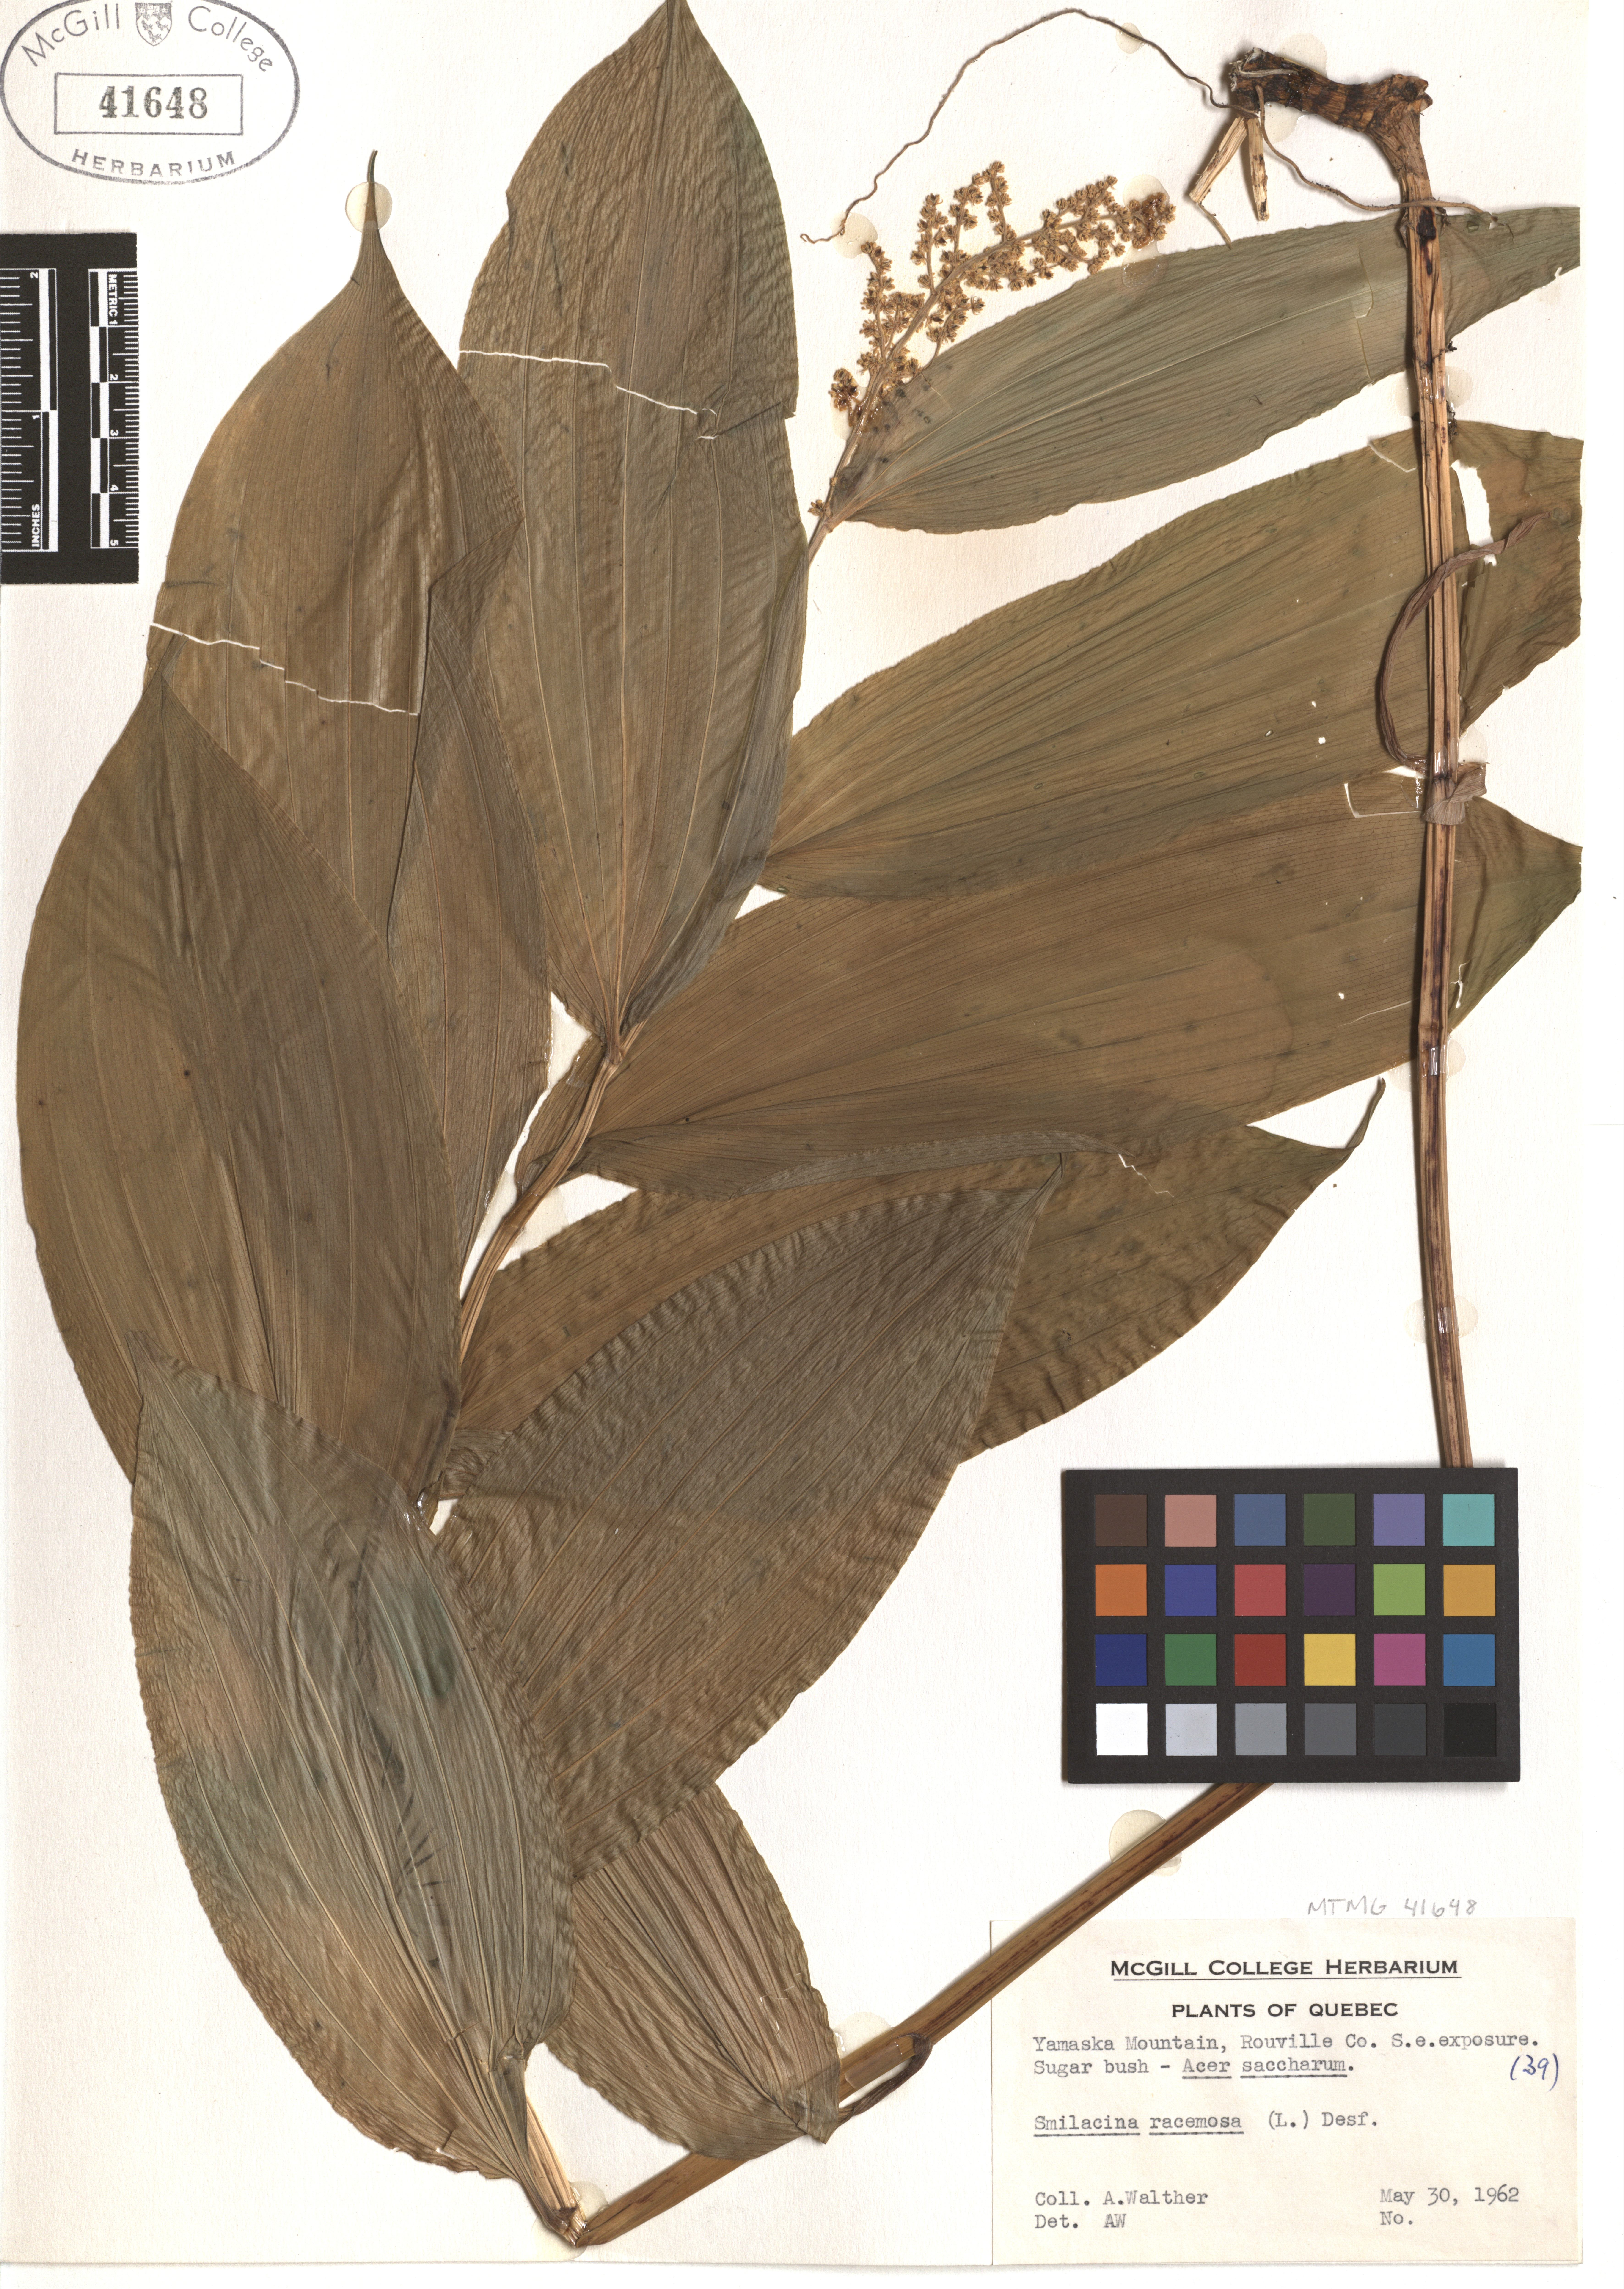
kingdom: Plantae
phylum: Tracheophyta
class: Liliopsida
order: Asparagales
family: Asparagaceae
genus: Maianthemum
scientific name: Maianthemum racemosum
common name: False spikenard
